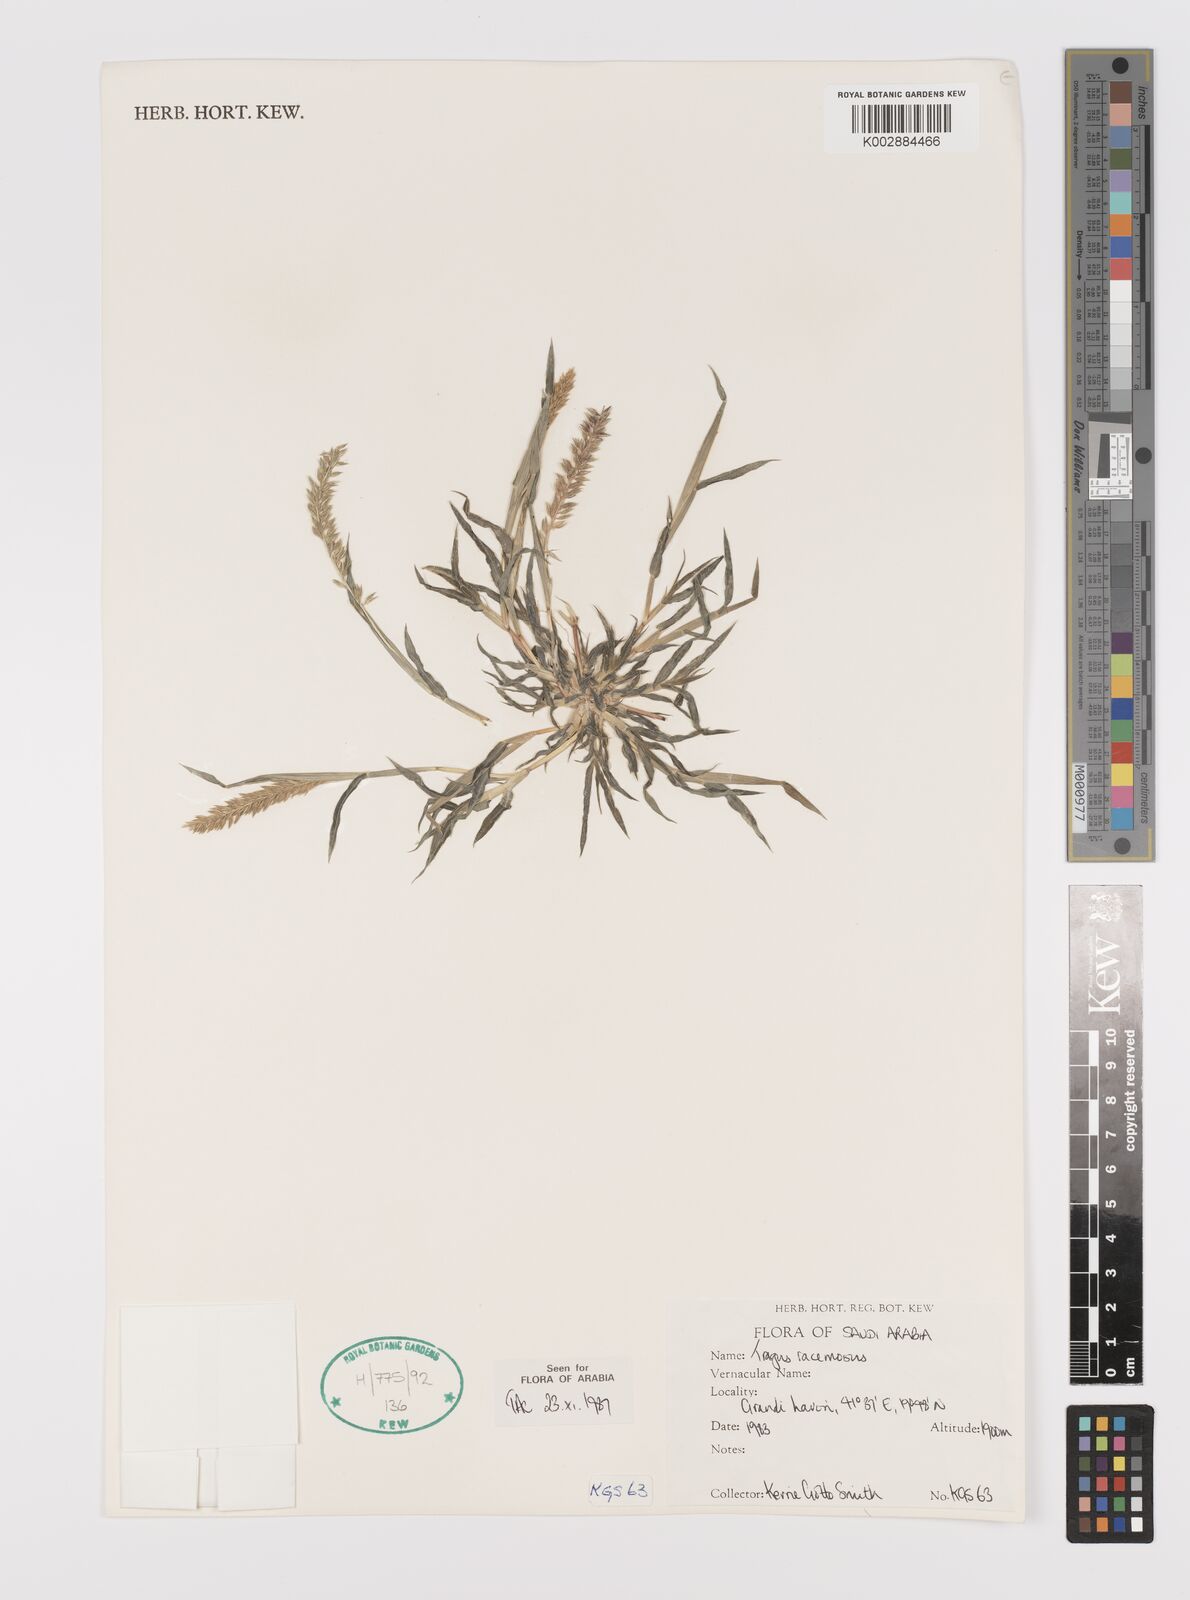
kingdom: Plantae
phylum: Tracheophyta
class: Liliopsida
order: Poales
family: Poaceae
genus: Tragus
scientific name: Tragus racemosus
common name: European bur-grass
